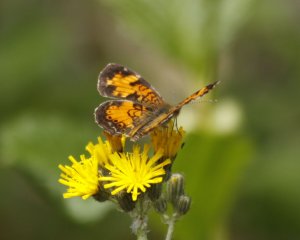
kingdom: Animalia
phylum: Arthropoda
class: Insecta
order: Lepidoptera
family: Nymphalidae
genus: Phyciodes
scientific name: Phyciodes tharos
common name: Northern Crescent
